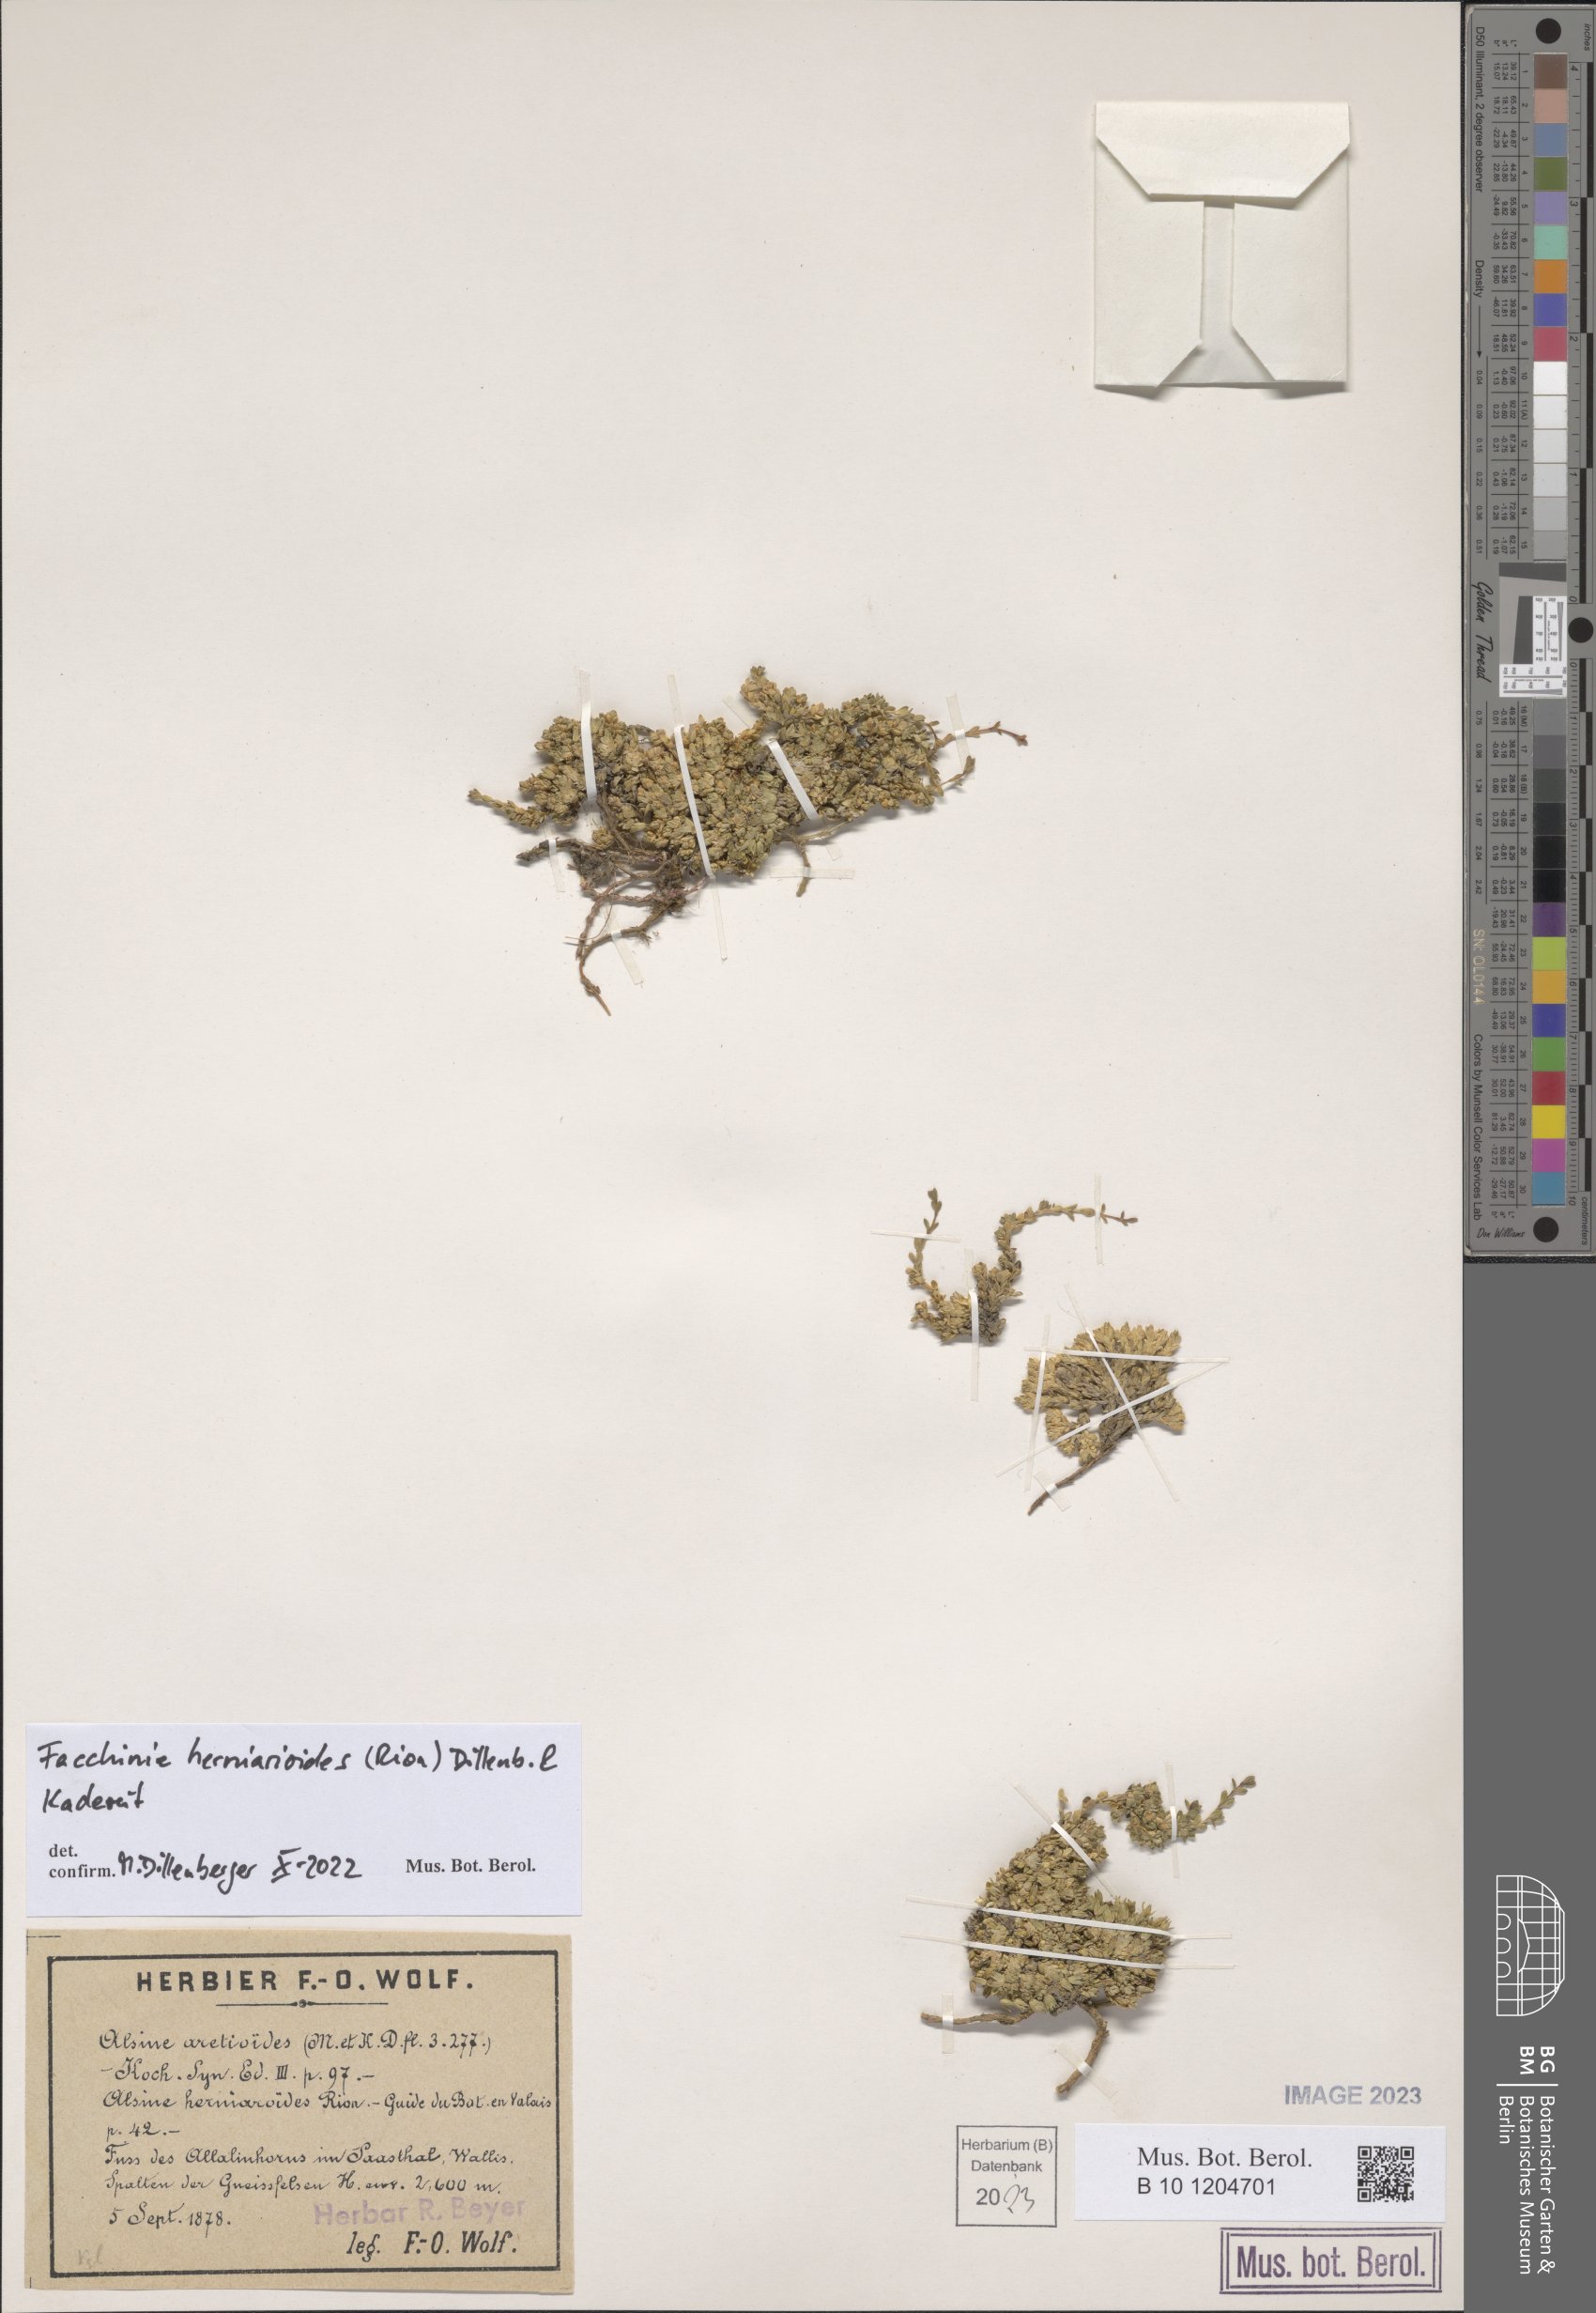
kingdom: Plantae
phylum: Tracheophyta
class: Magnoliopsida
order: Caryophyllales
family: Caryophyllaceae
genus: Facchinia
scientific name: Facchinia herniarioides
